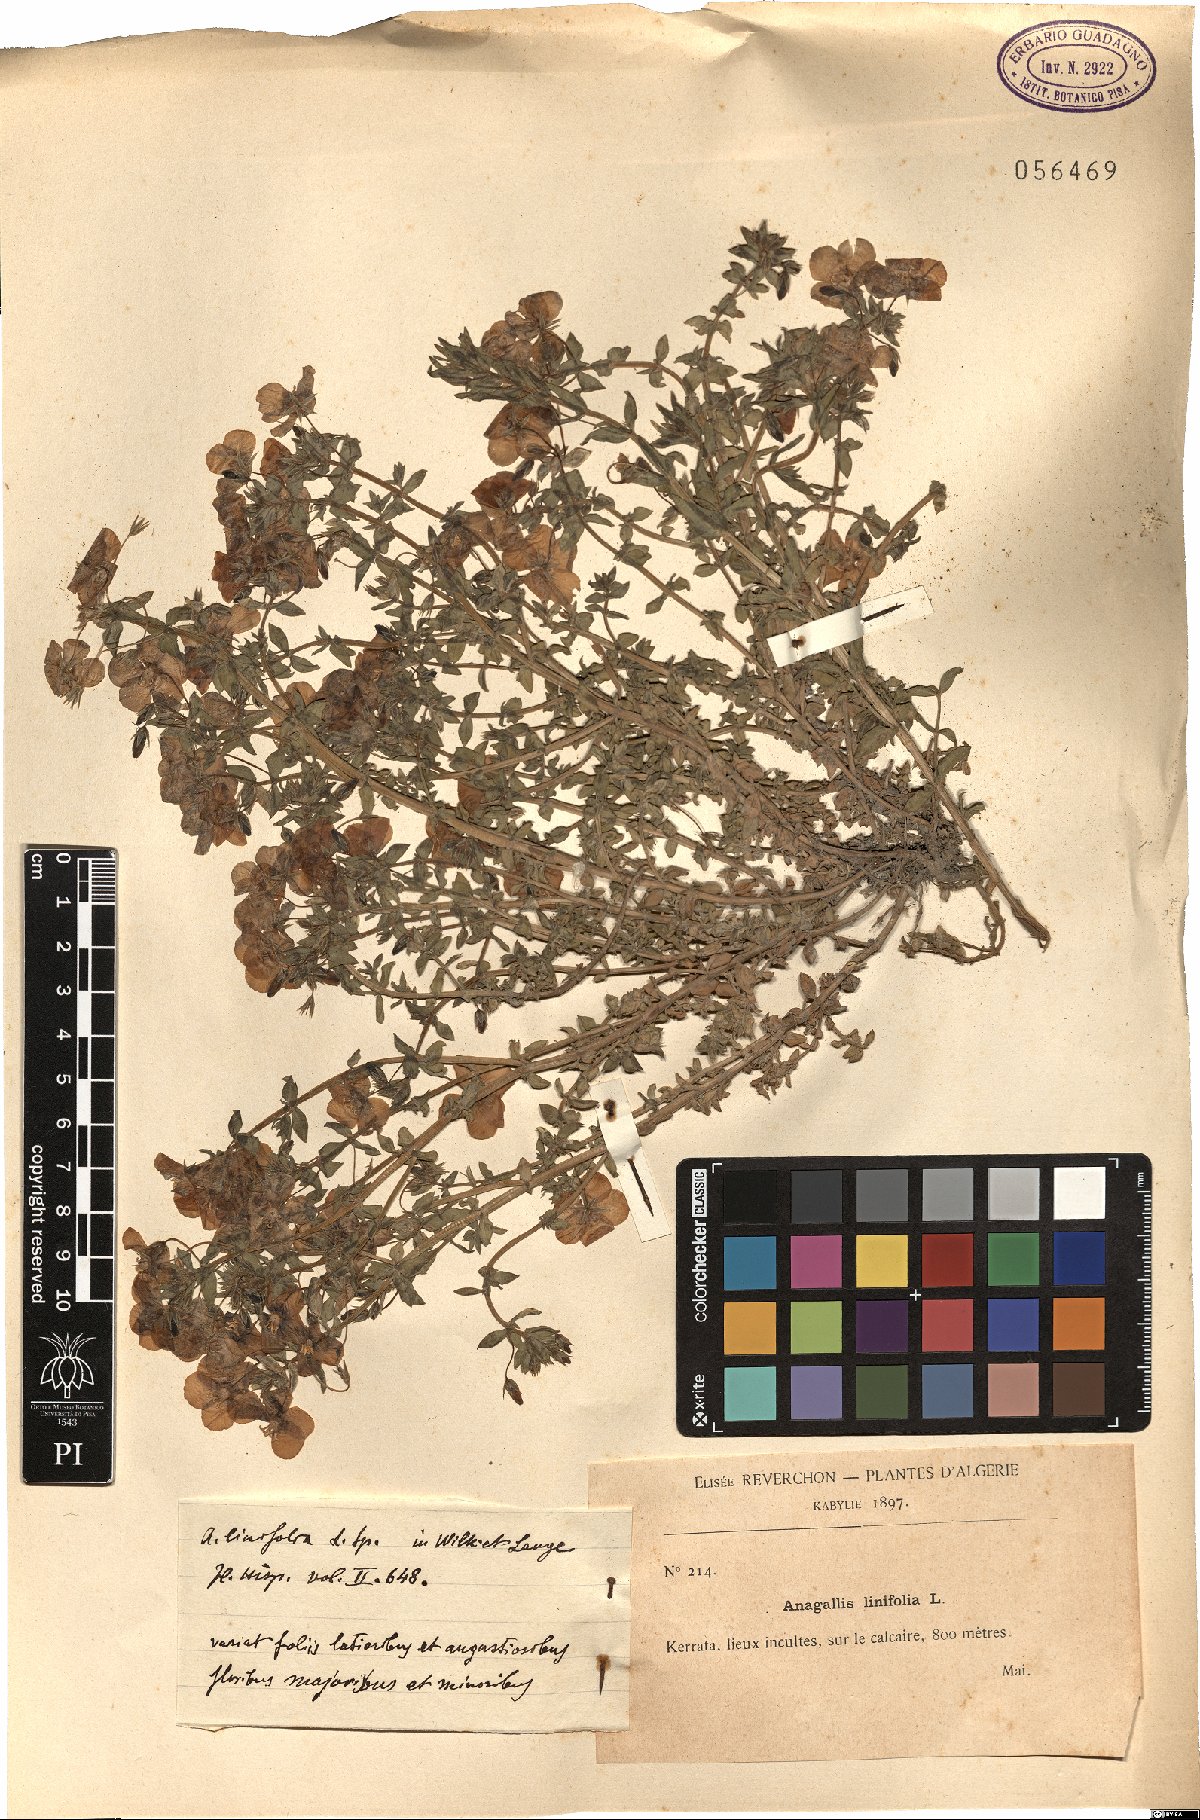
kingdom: Plantae
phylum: Tracheophyta
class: Magnoliopsida
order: Ericales
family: Primulaceae
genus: Lysimachia
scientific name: Lysimachia monelli
